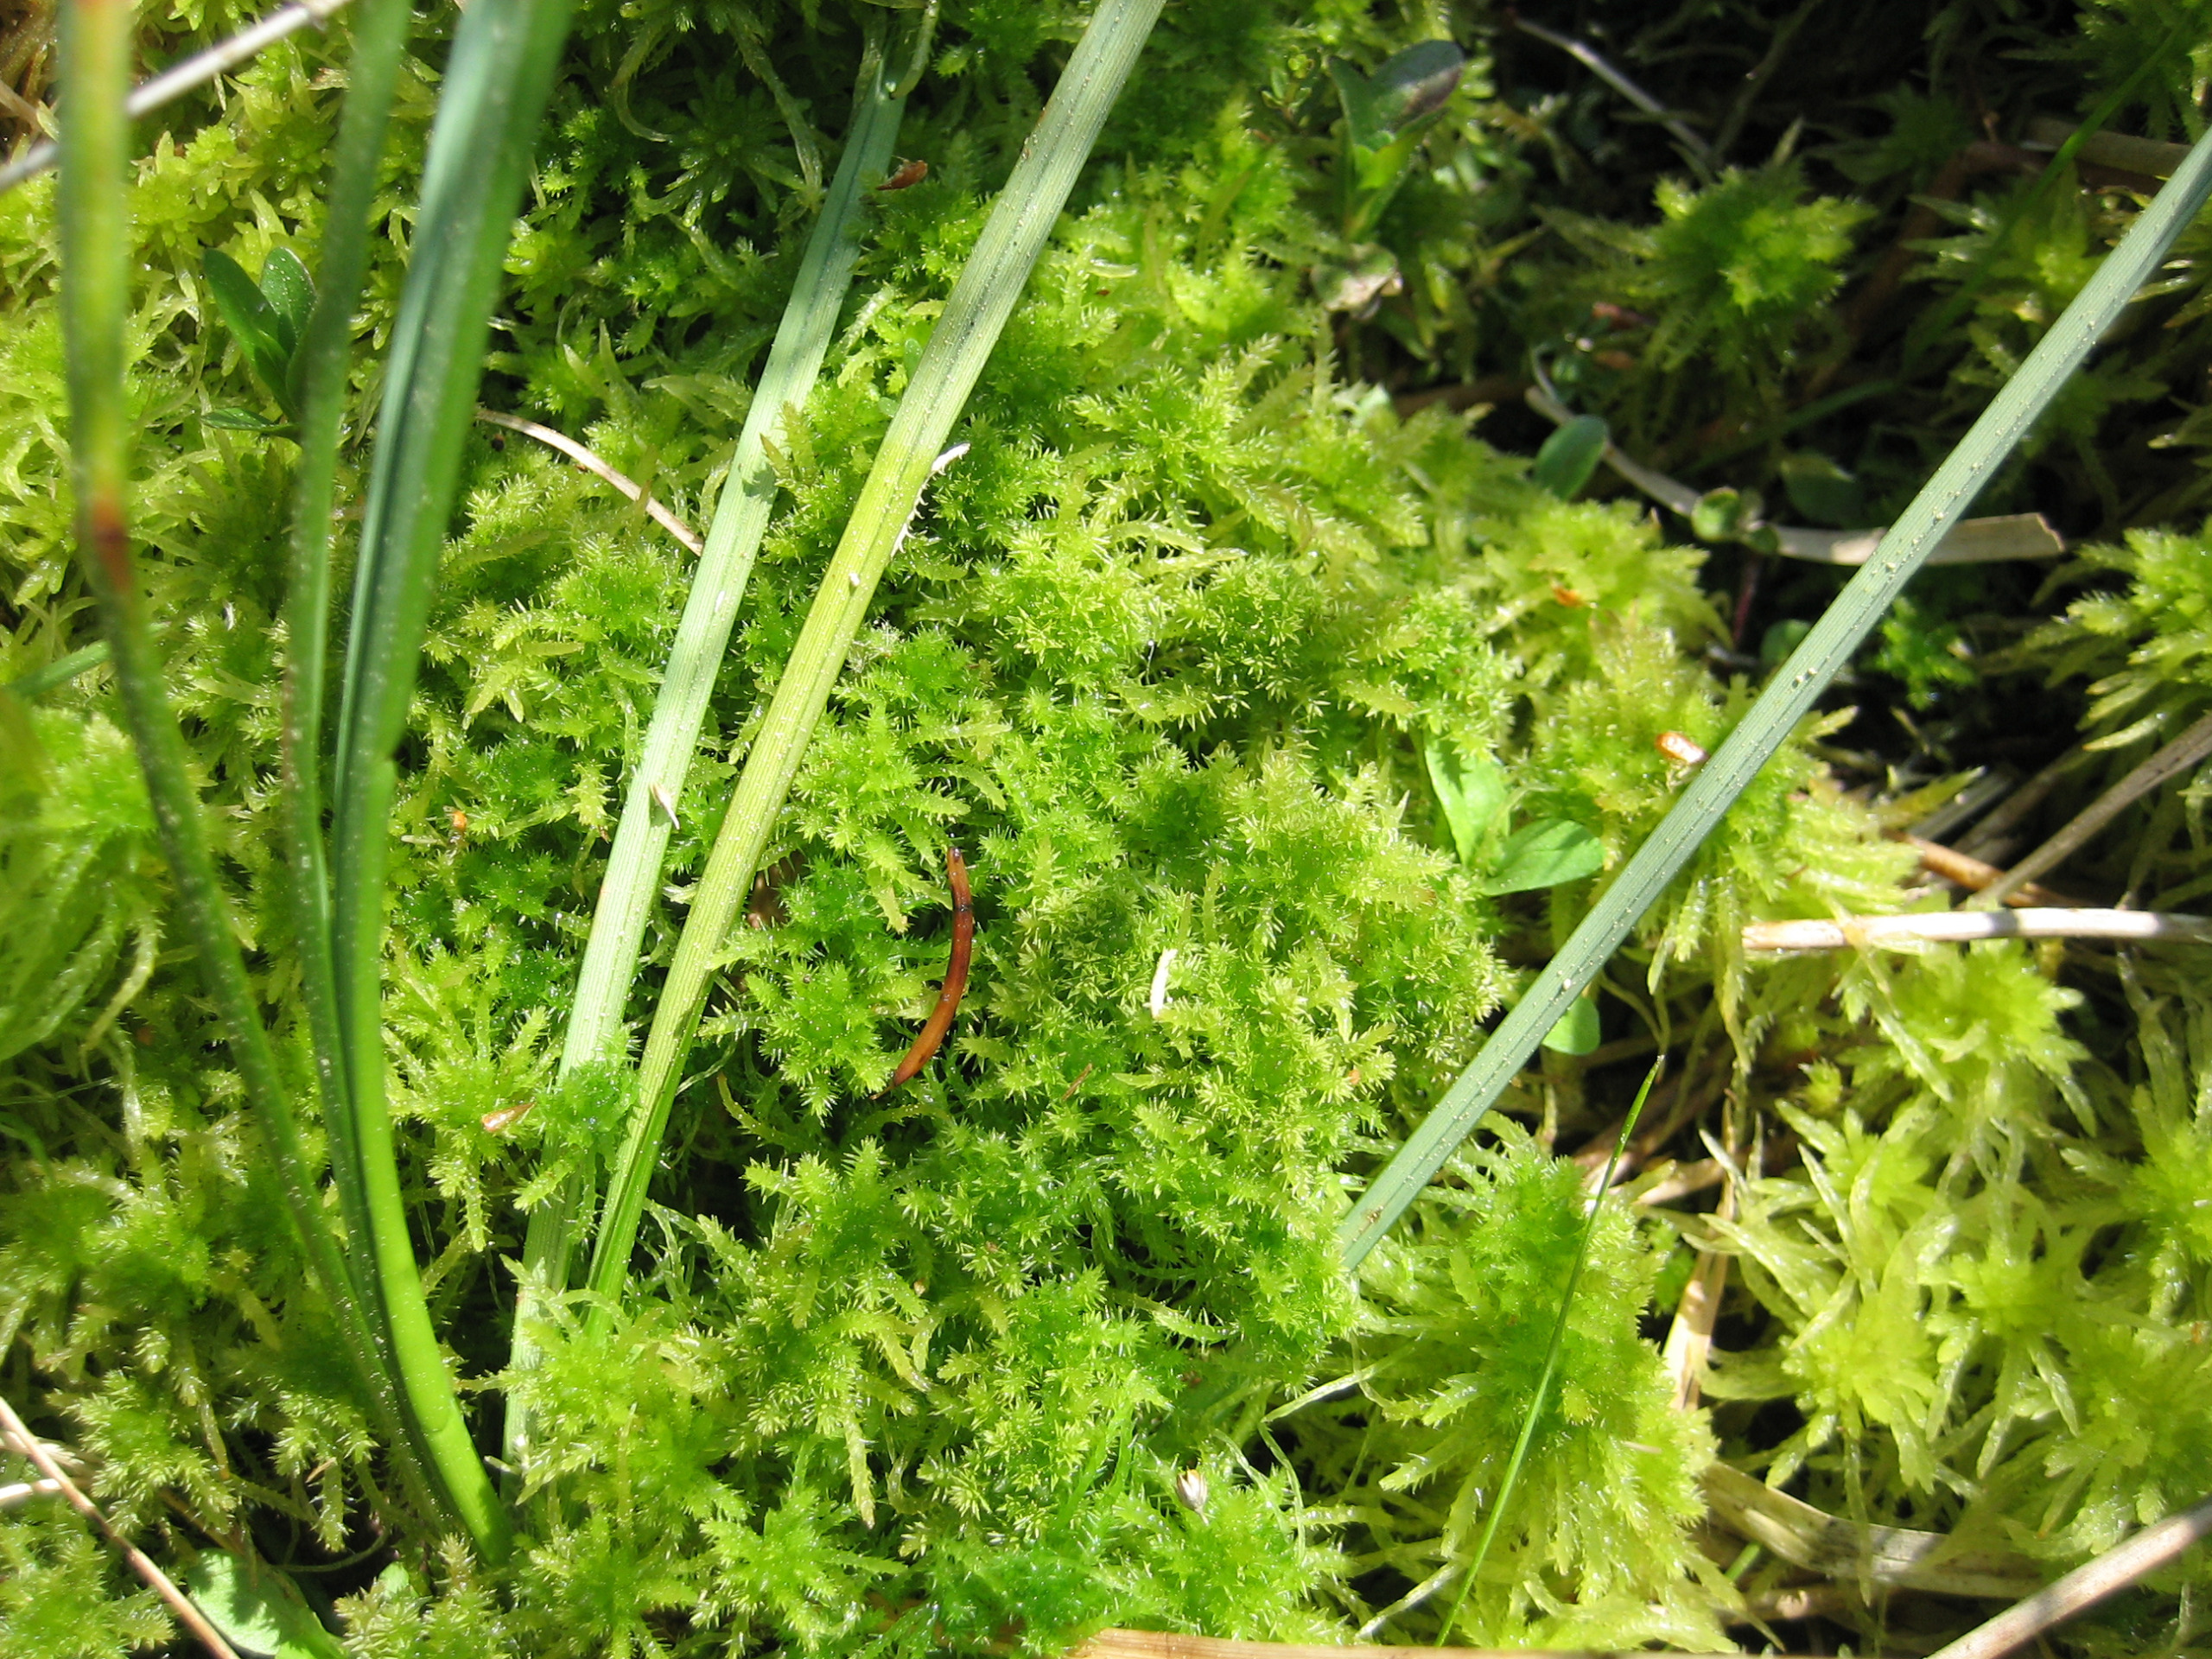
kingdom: Plantae
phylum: Bryophyta
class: Sphagnopsida
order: Sphagnales
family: Sphagnaceae
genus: Sphagnum
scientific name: Sphagnum squarrosum
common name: Udspærret tørvemos
